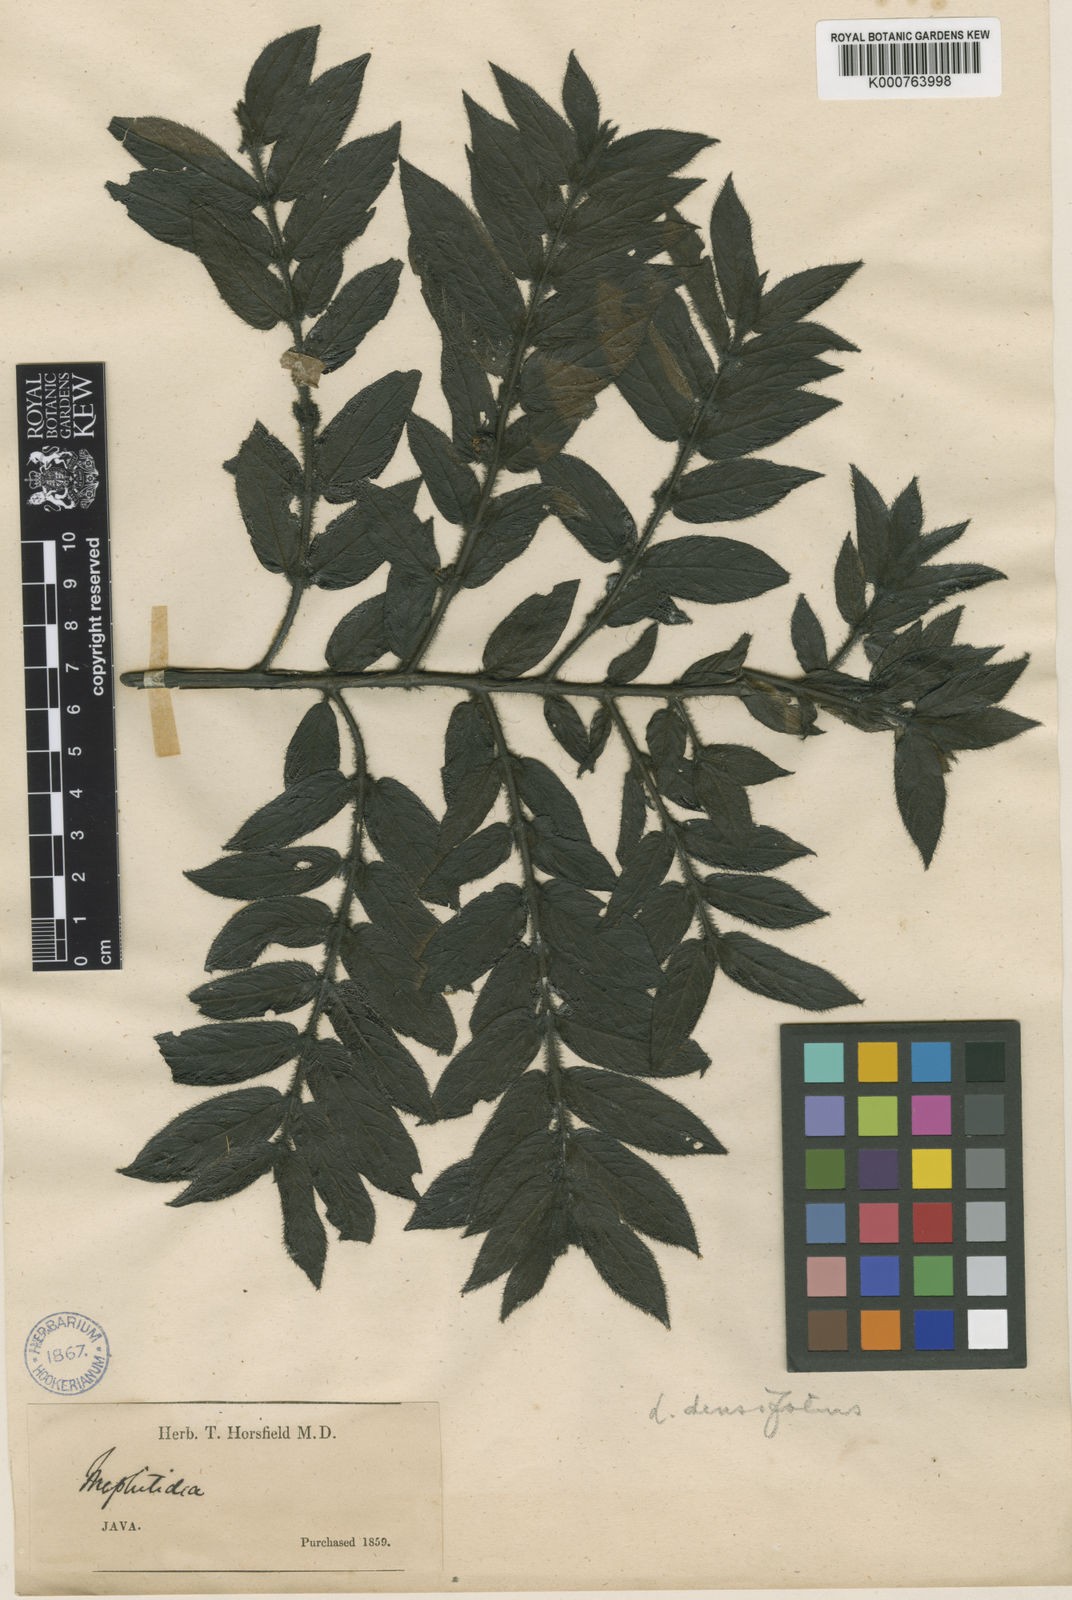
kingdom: Plantae
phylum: Tracheophyta
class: Magnoliopsida
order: Gentianales
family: Rubiaceae
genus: Lasianthus
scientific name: Lasianthus attenuatus
